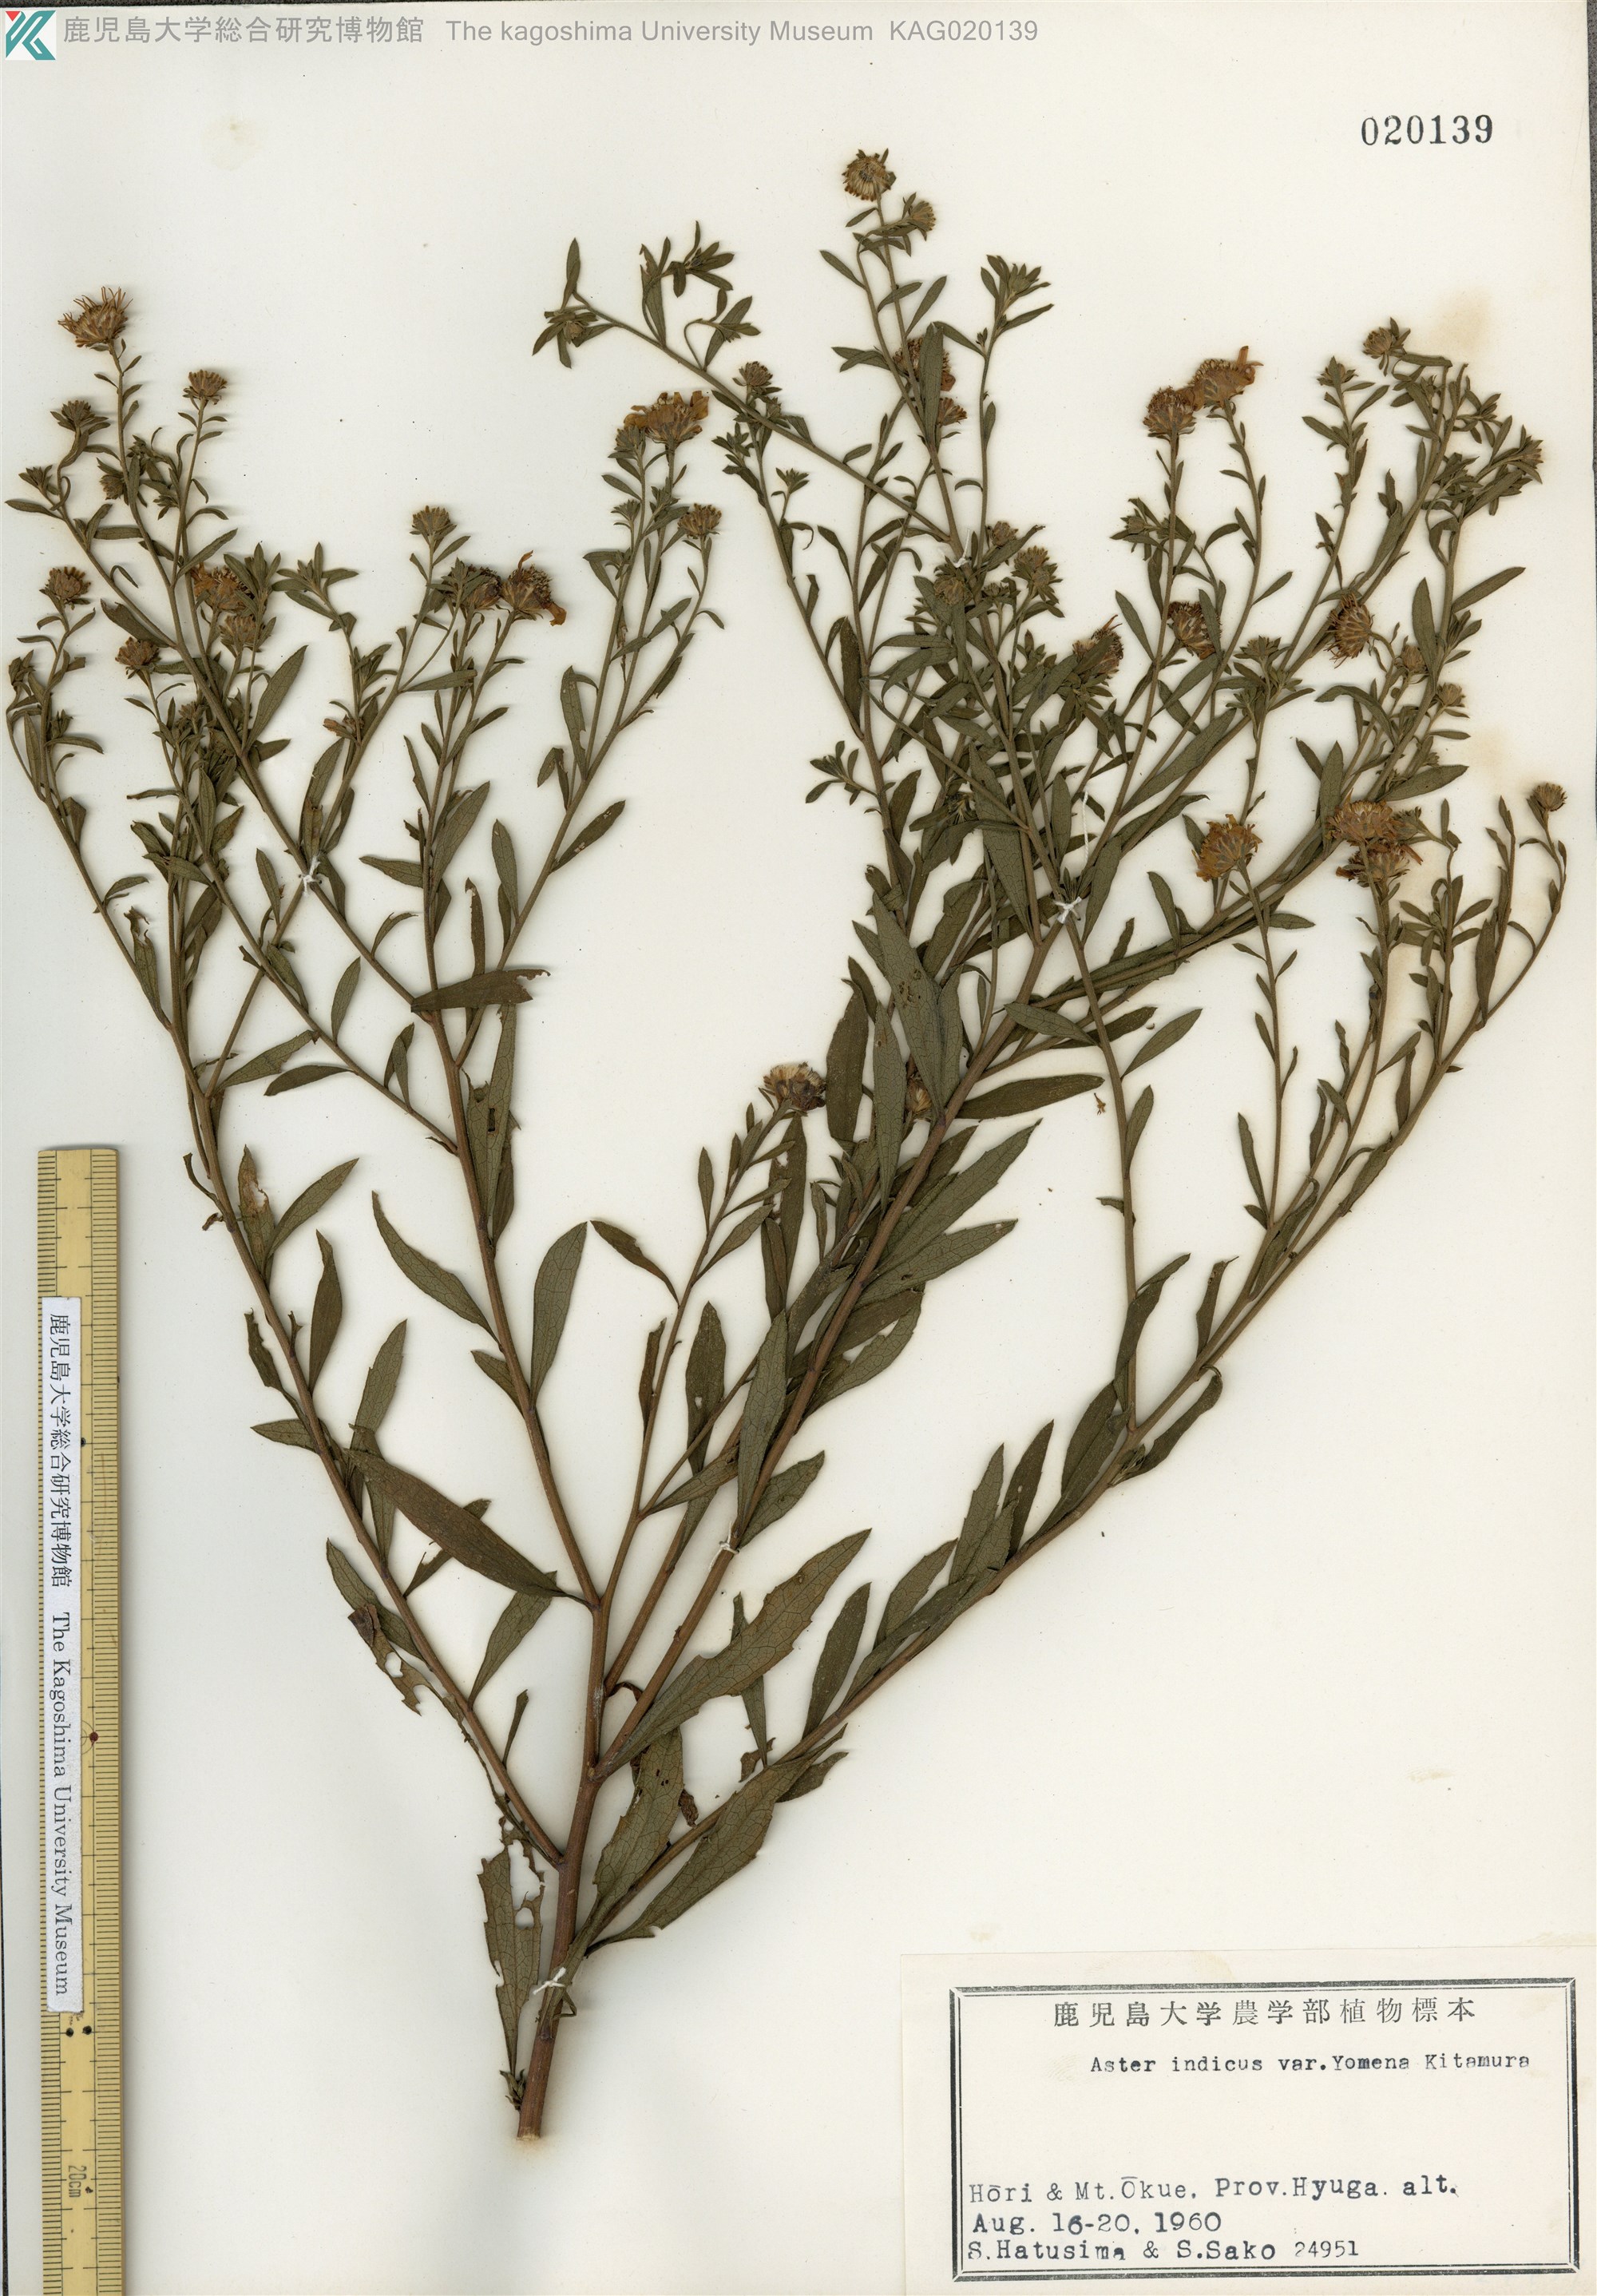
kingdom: Plantae
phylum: Tracheophyta
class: Magnoliopsida
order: Asterales
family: Asteraceae
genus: Aster
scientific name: Aster microcephalus
